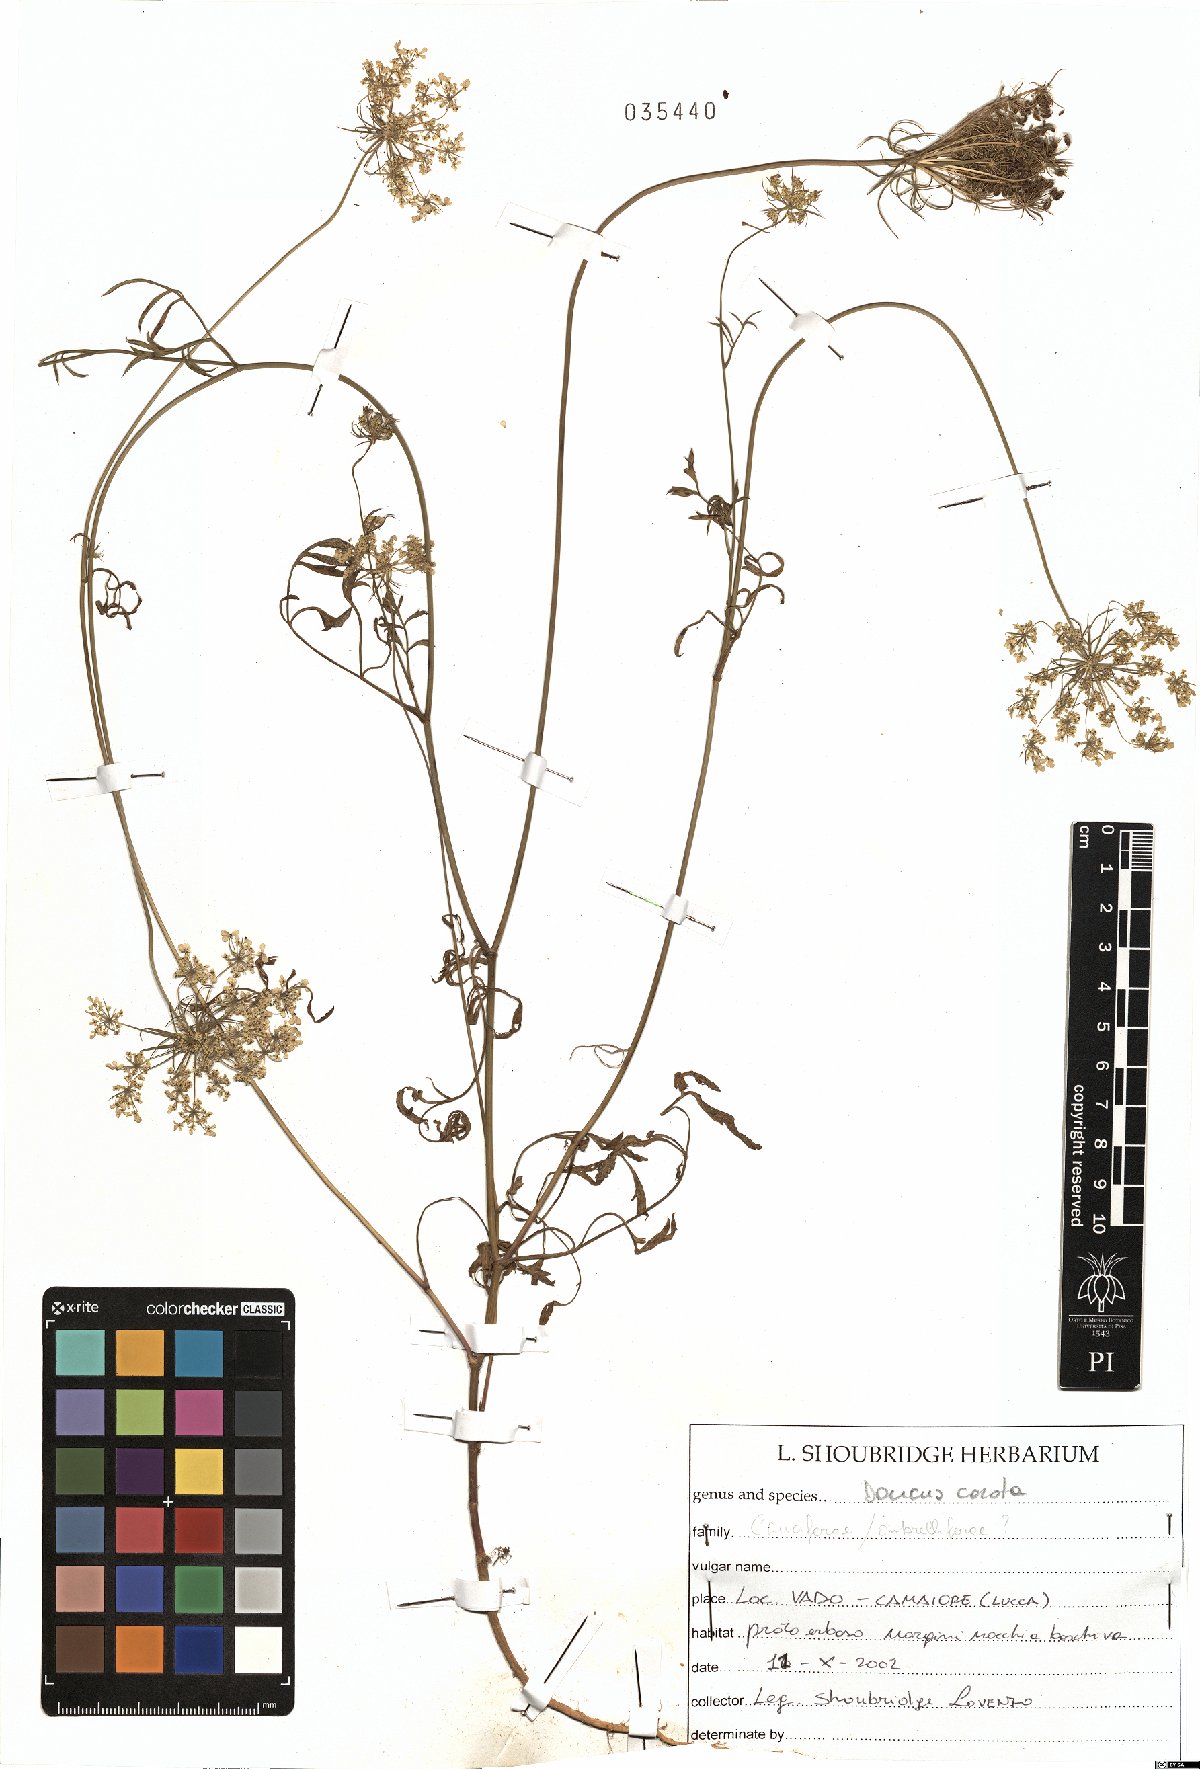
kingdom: Plantae
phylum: Tracheophyta
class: Magnoliopsida
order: Apiales
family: Apiaceae
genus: Daucus
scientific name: Daucus carota
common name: Wild carrot
